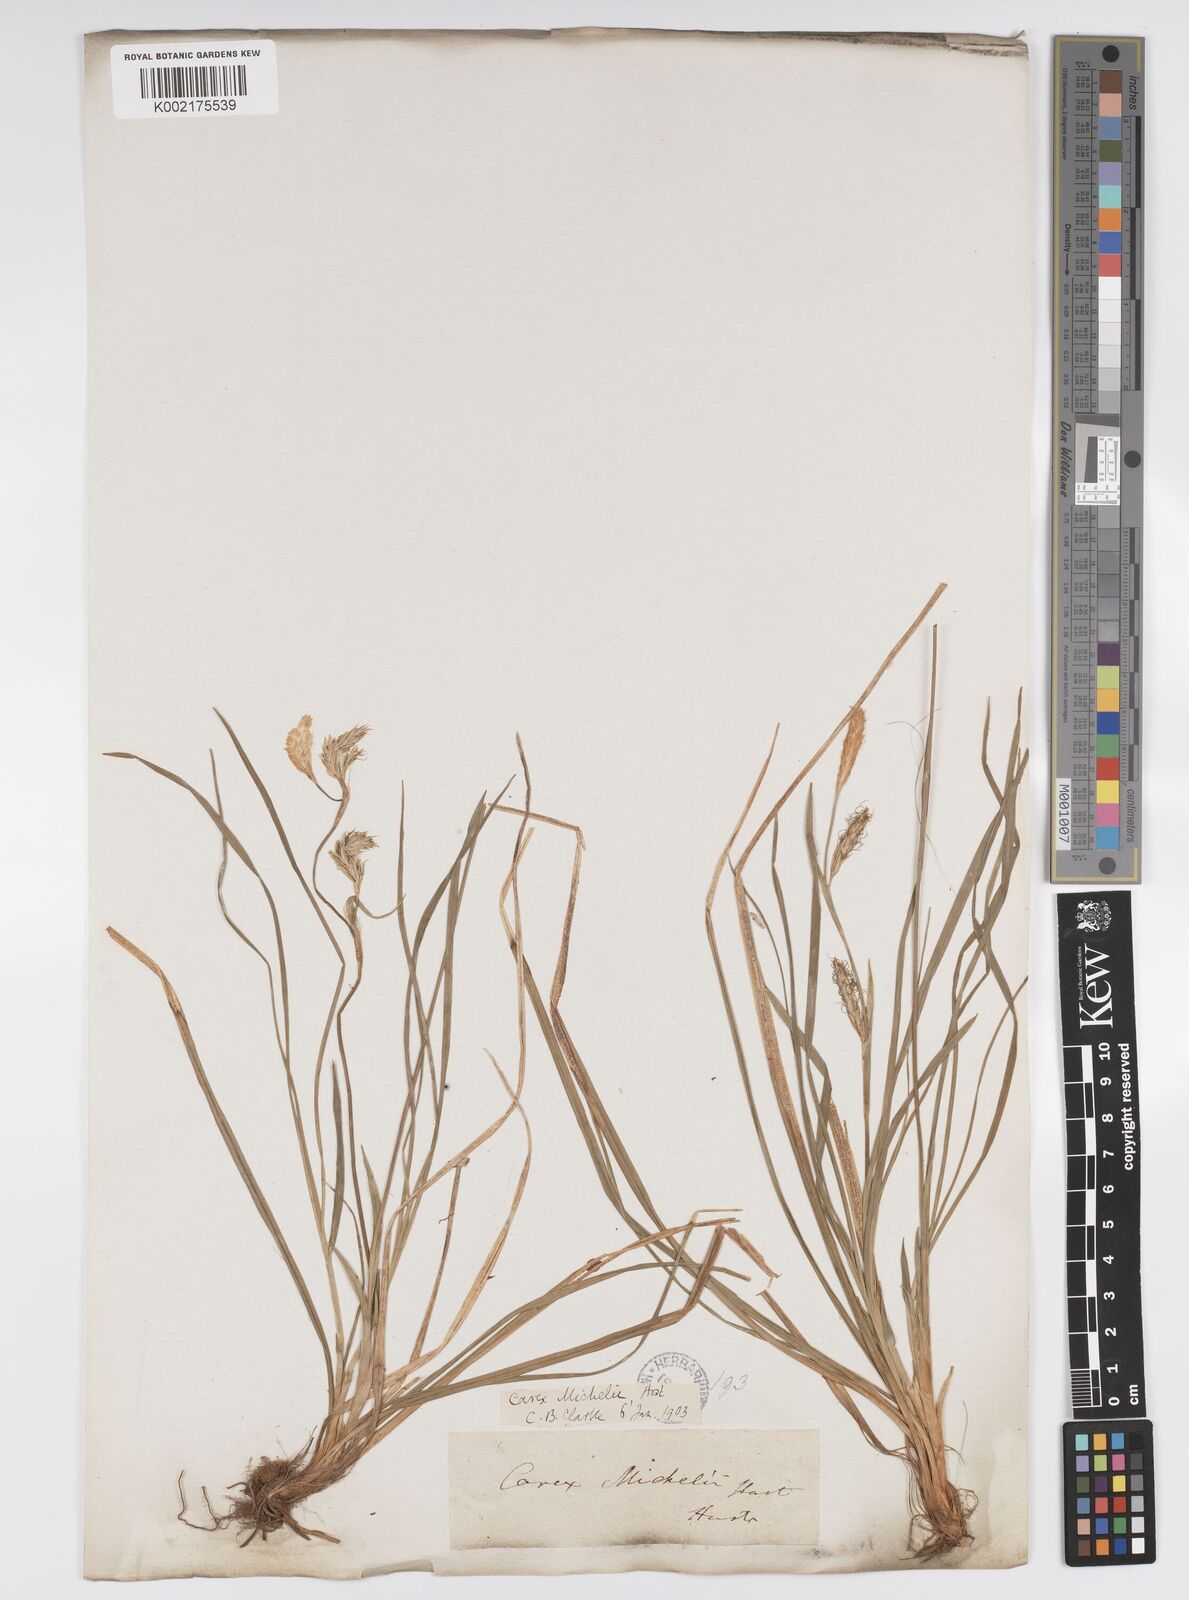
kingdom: Plantae
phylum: Tracheophyta
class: Liliopsida
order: Poales
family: Cyperaceae
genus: Carex
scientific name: Carex michelii
